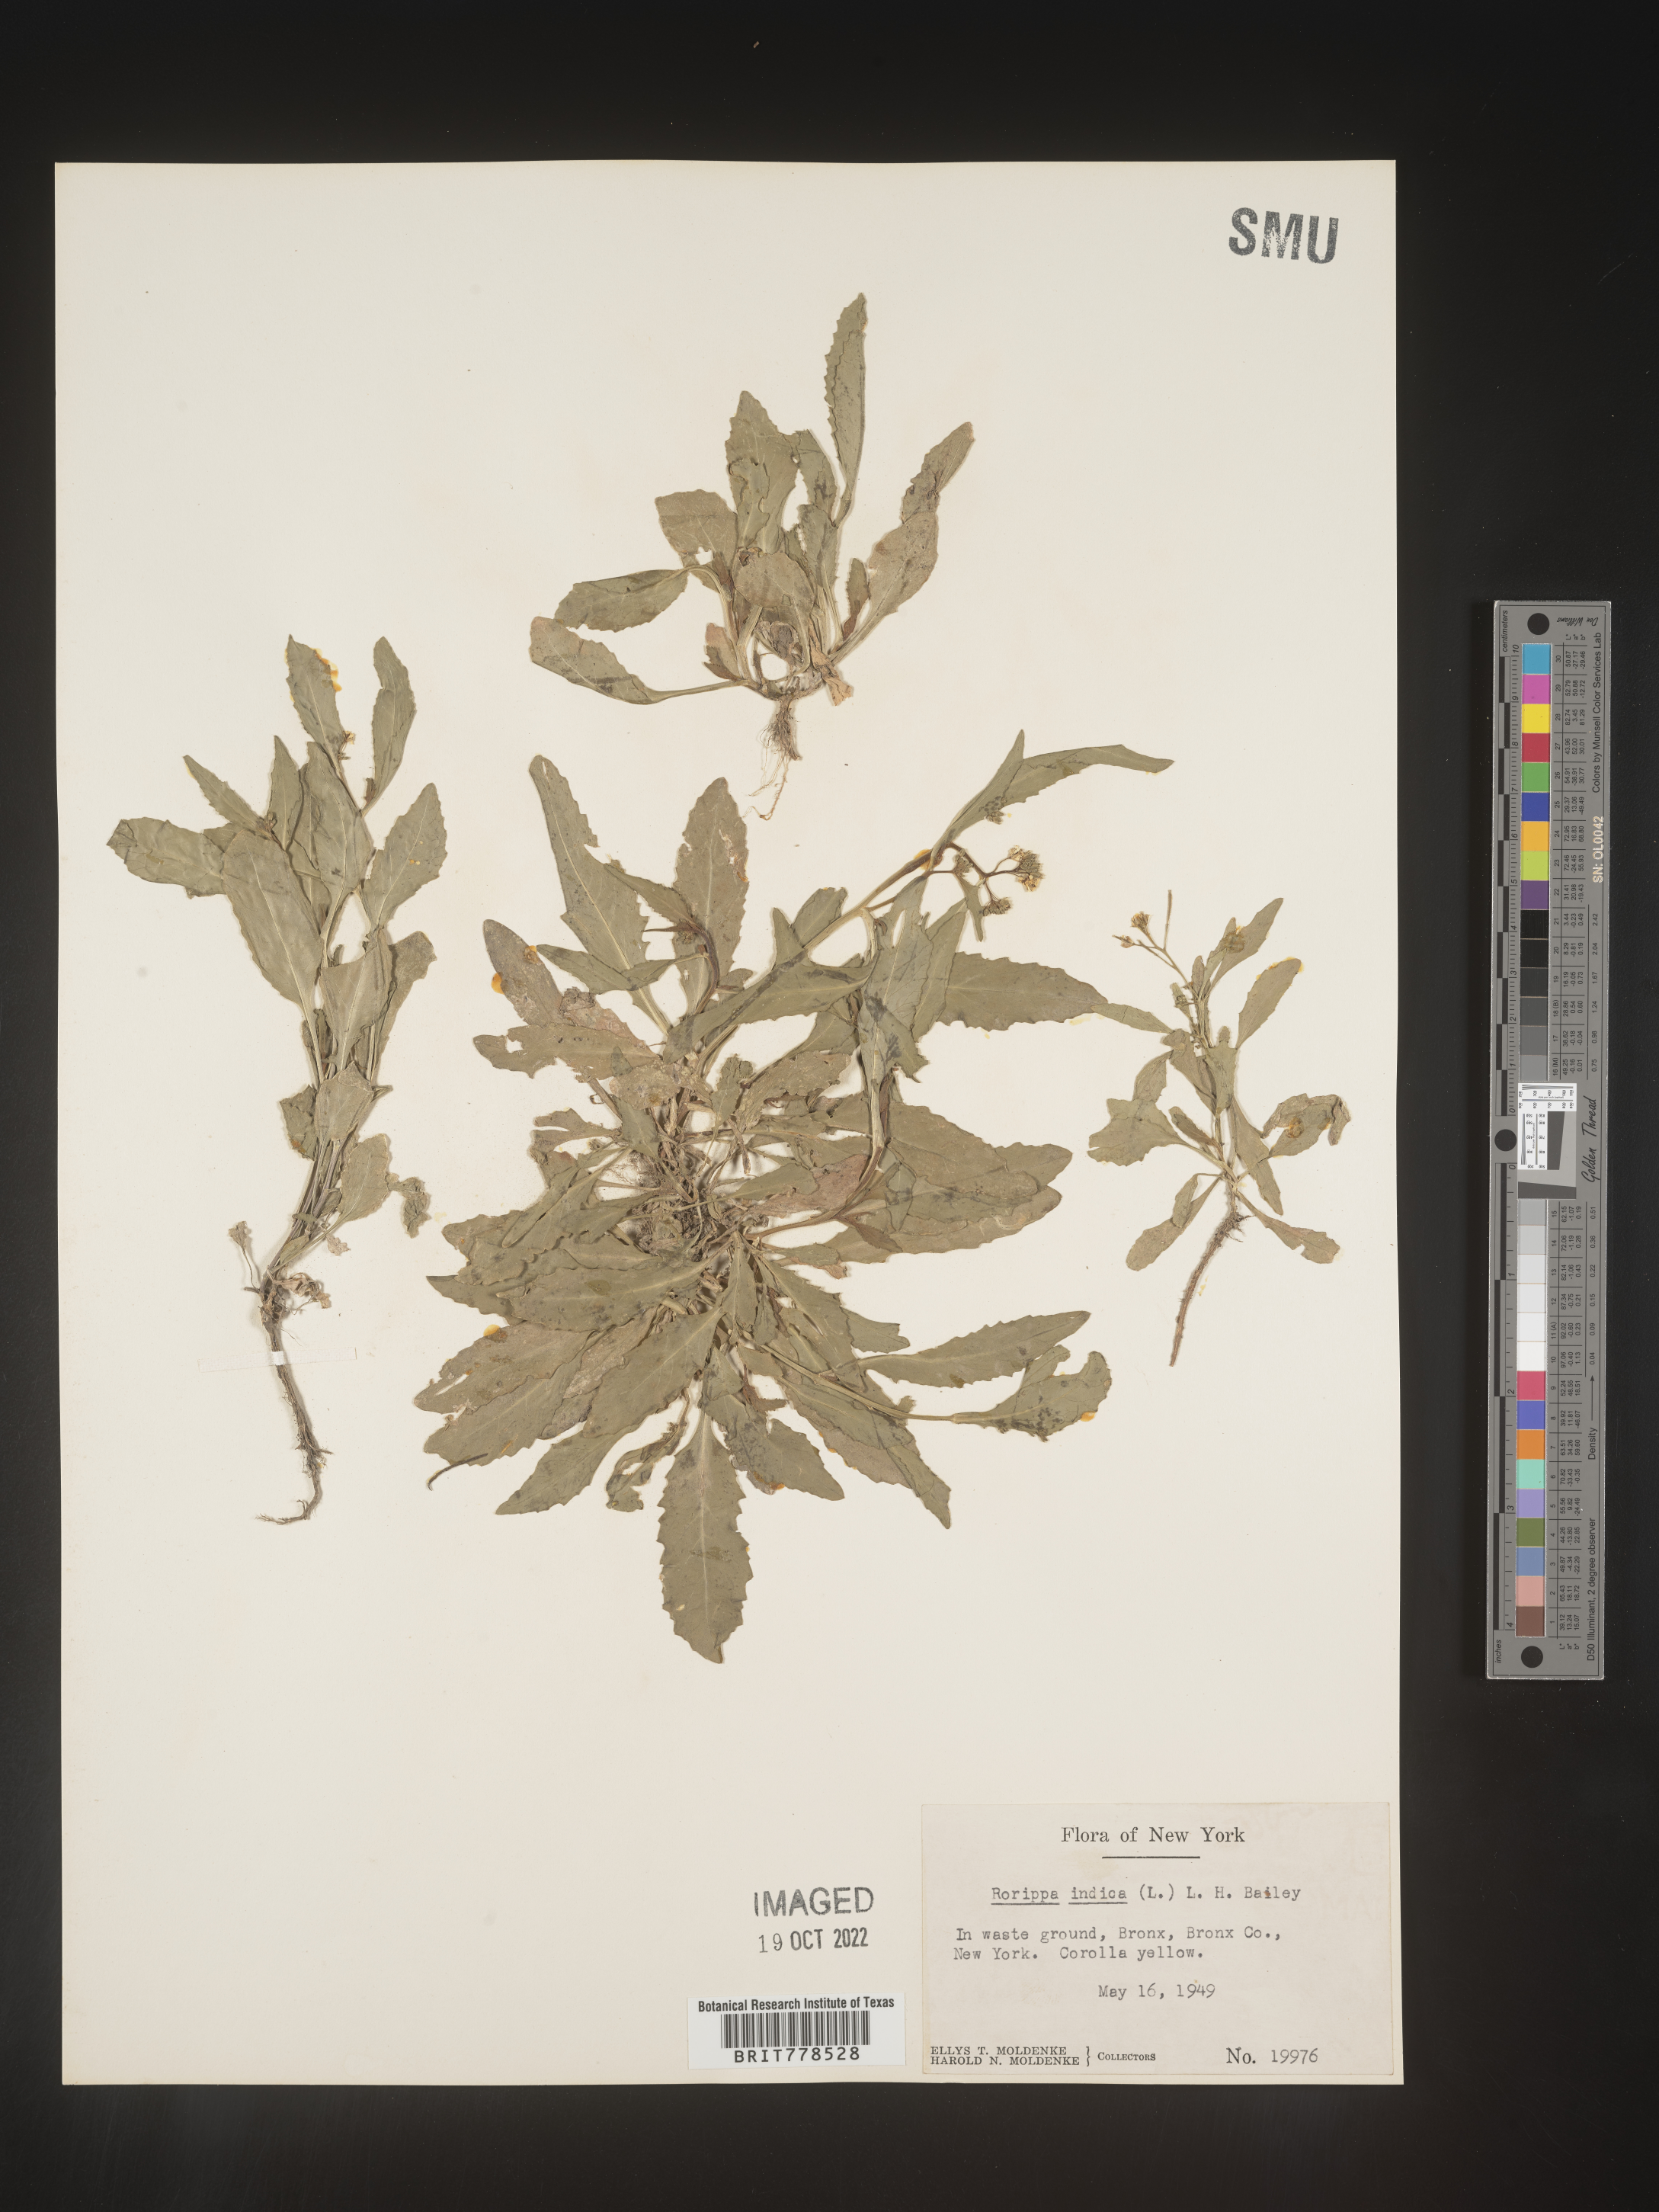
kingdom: Plantae
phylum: Tracheophyta
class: Magnoliopsida
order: Brassicales
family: Brassicaceae
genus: Rorippa
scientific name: Rorippa
